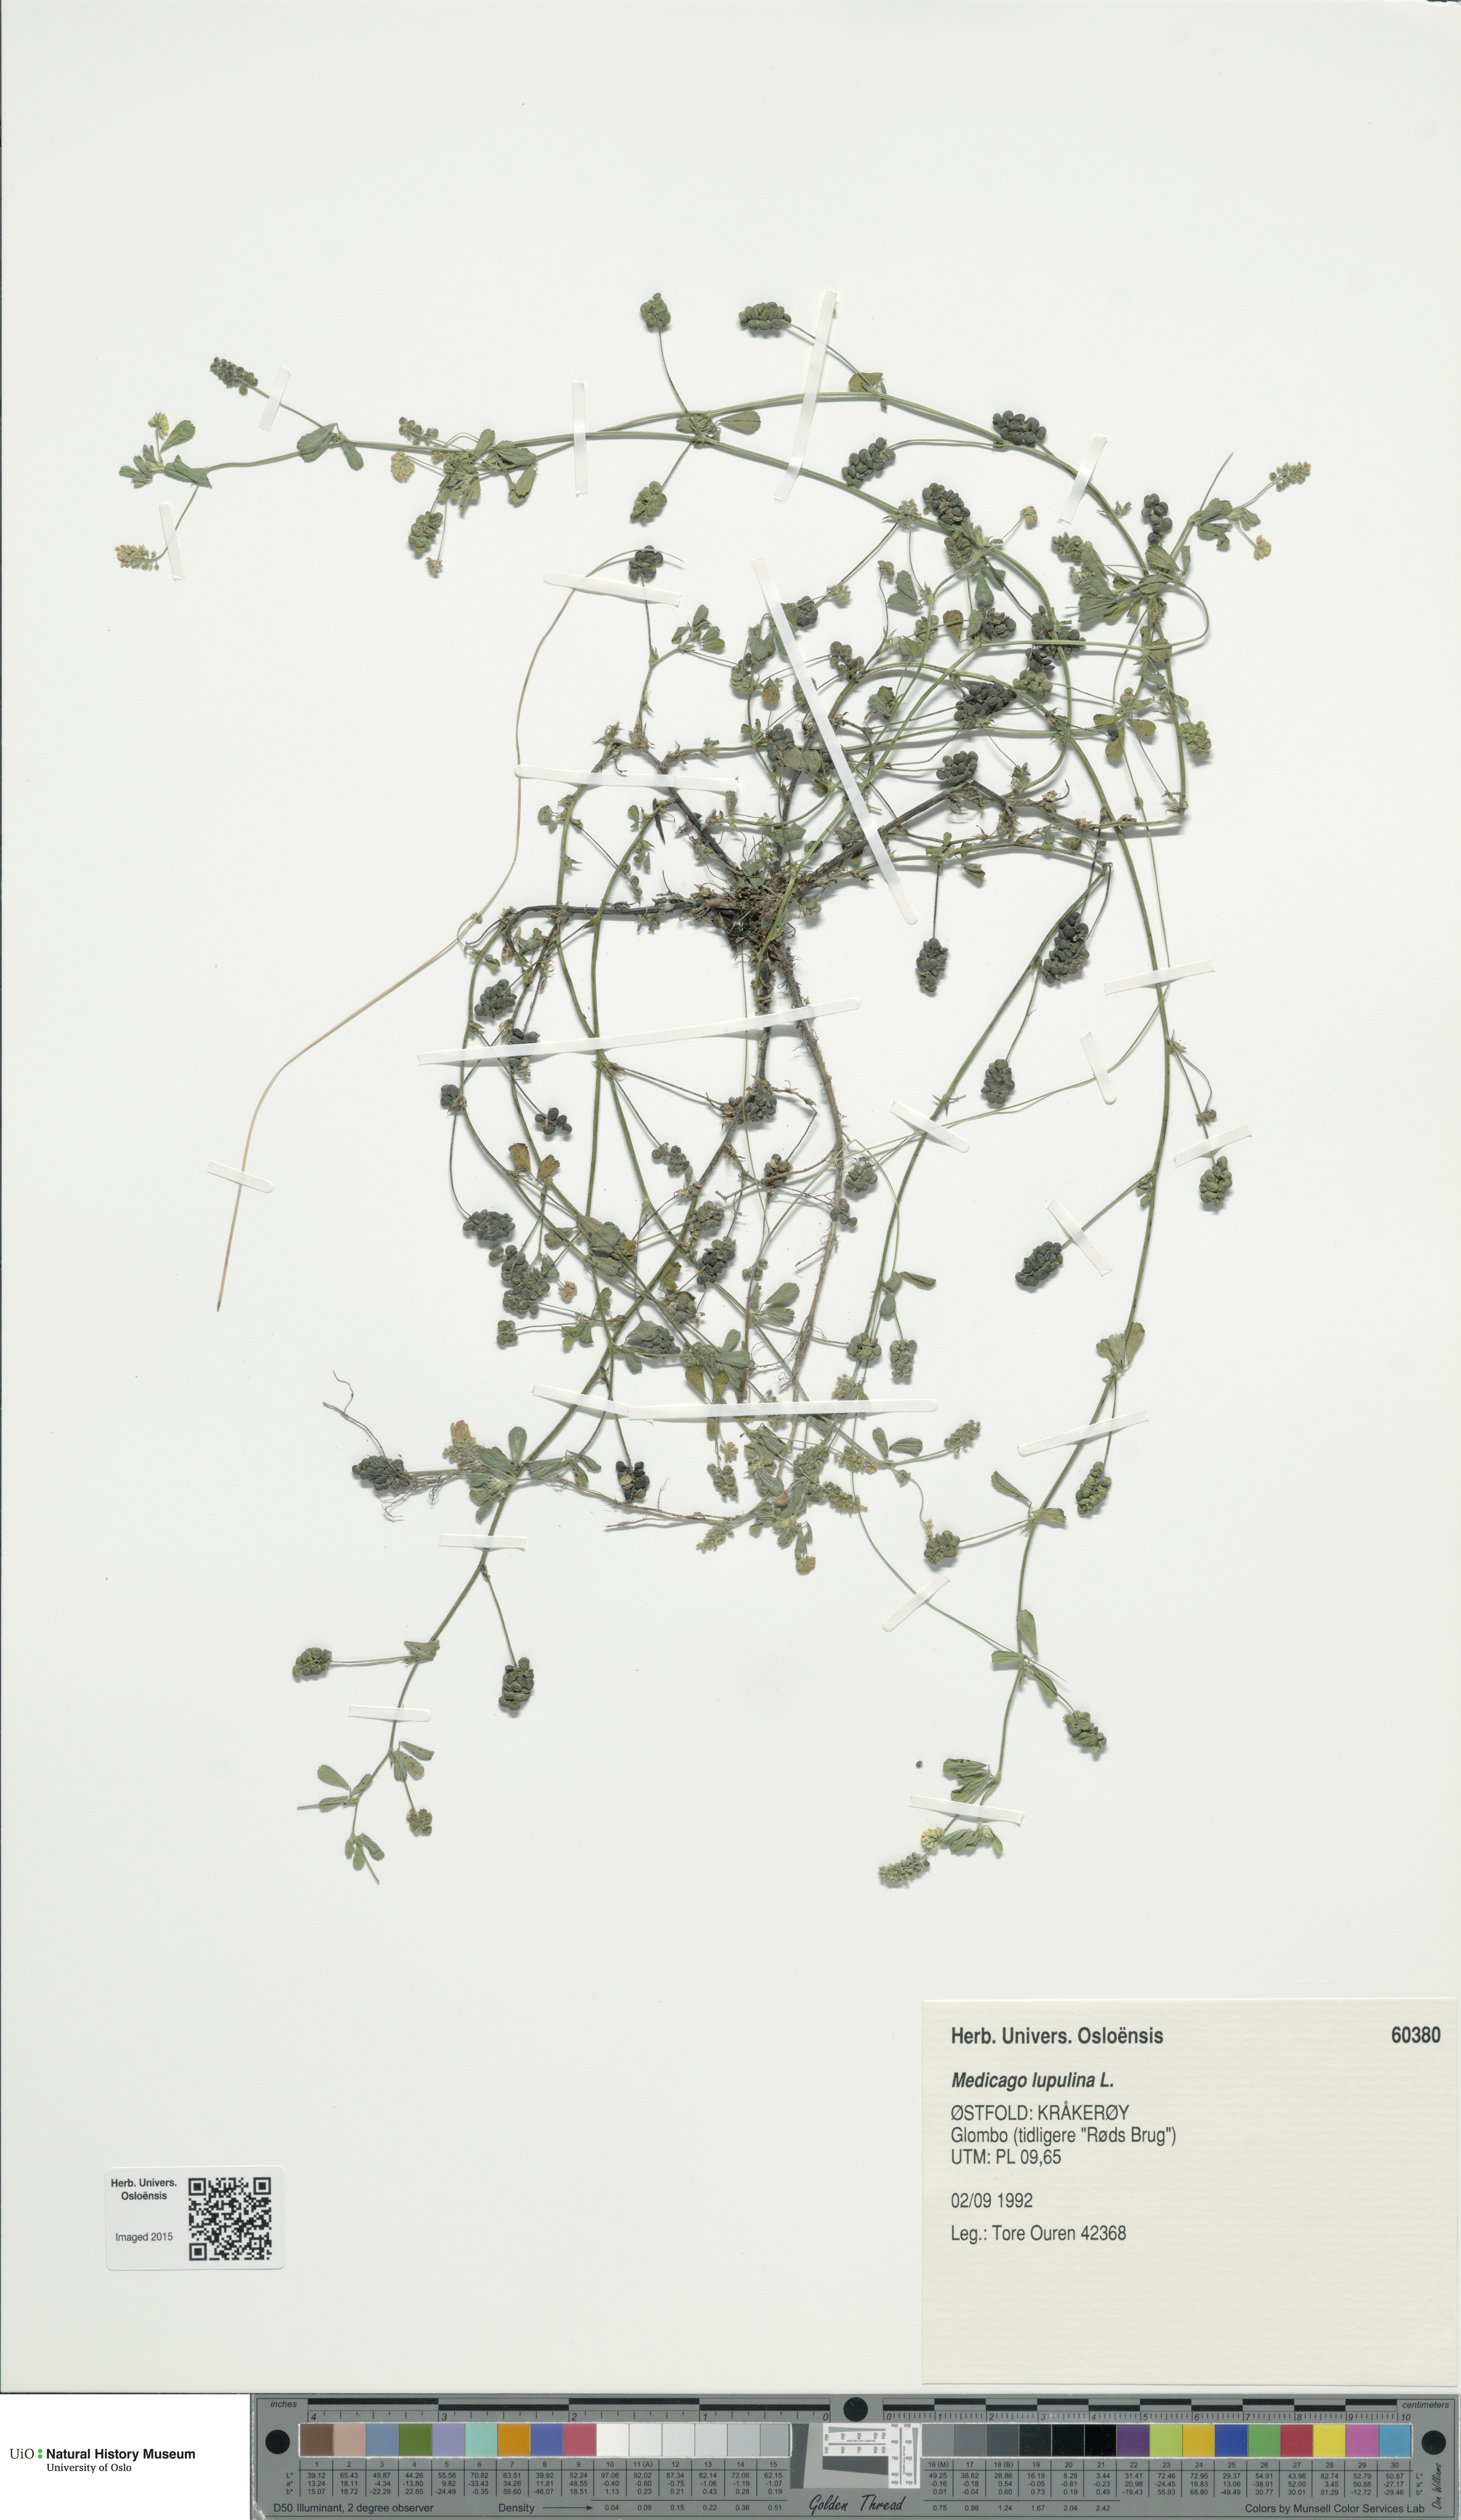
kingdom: Plantae
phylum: Tracheophyta
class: Magnoliopsida
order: Fabales
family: Fabaceae
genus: Medicago
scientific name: Medicago lupulina
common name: Black medick
